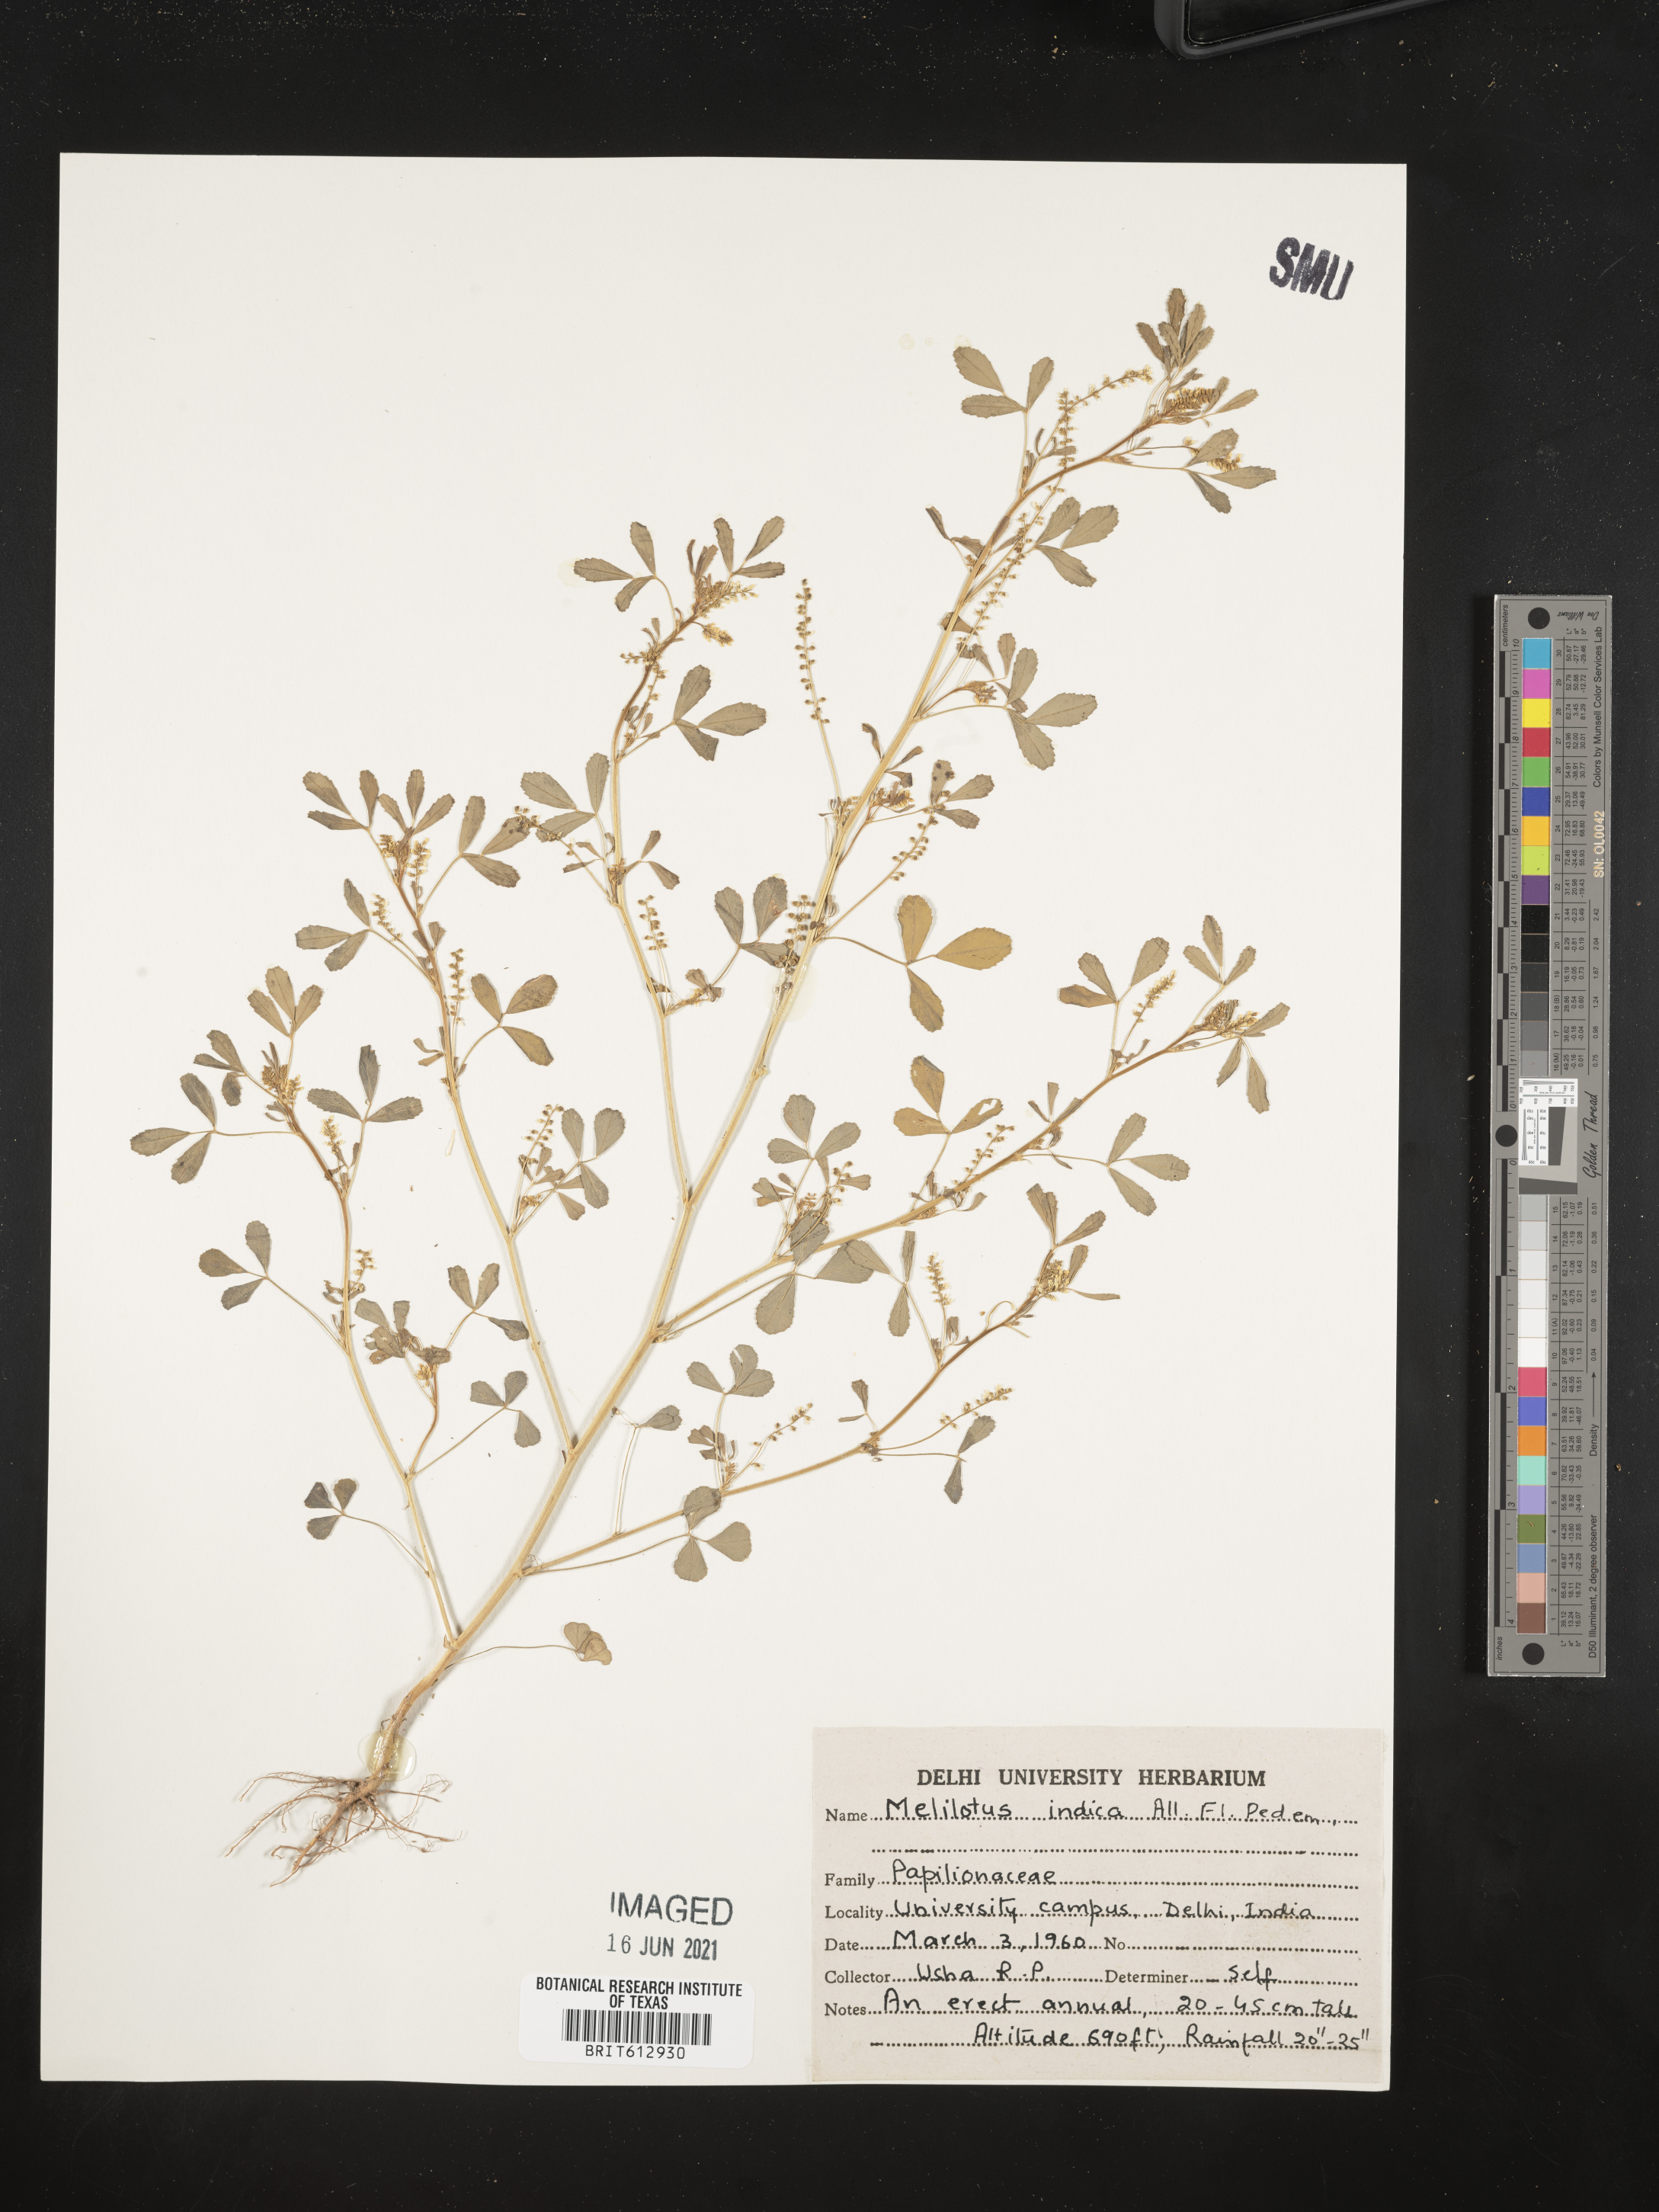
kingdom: Plantae
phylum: Tracheophyta
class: Magnoliopsida
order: Fabales
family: Fabaceae
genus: Melilotus
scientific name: Melilotus indicus
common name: Small melilot
